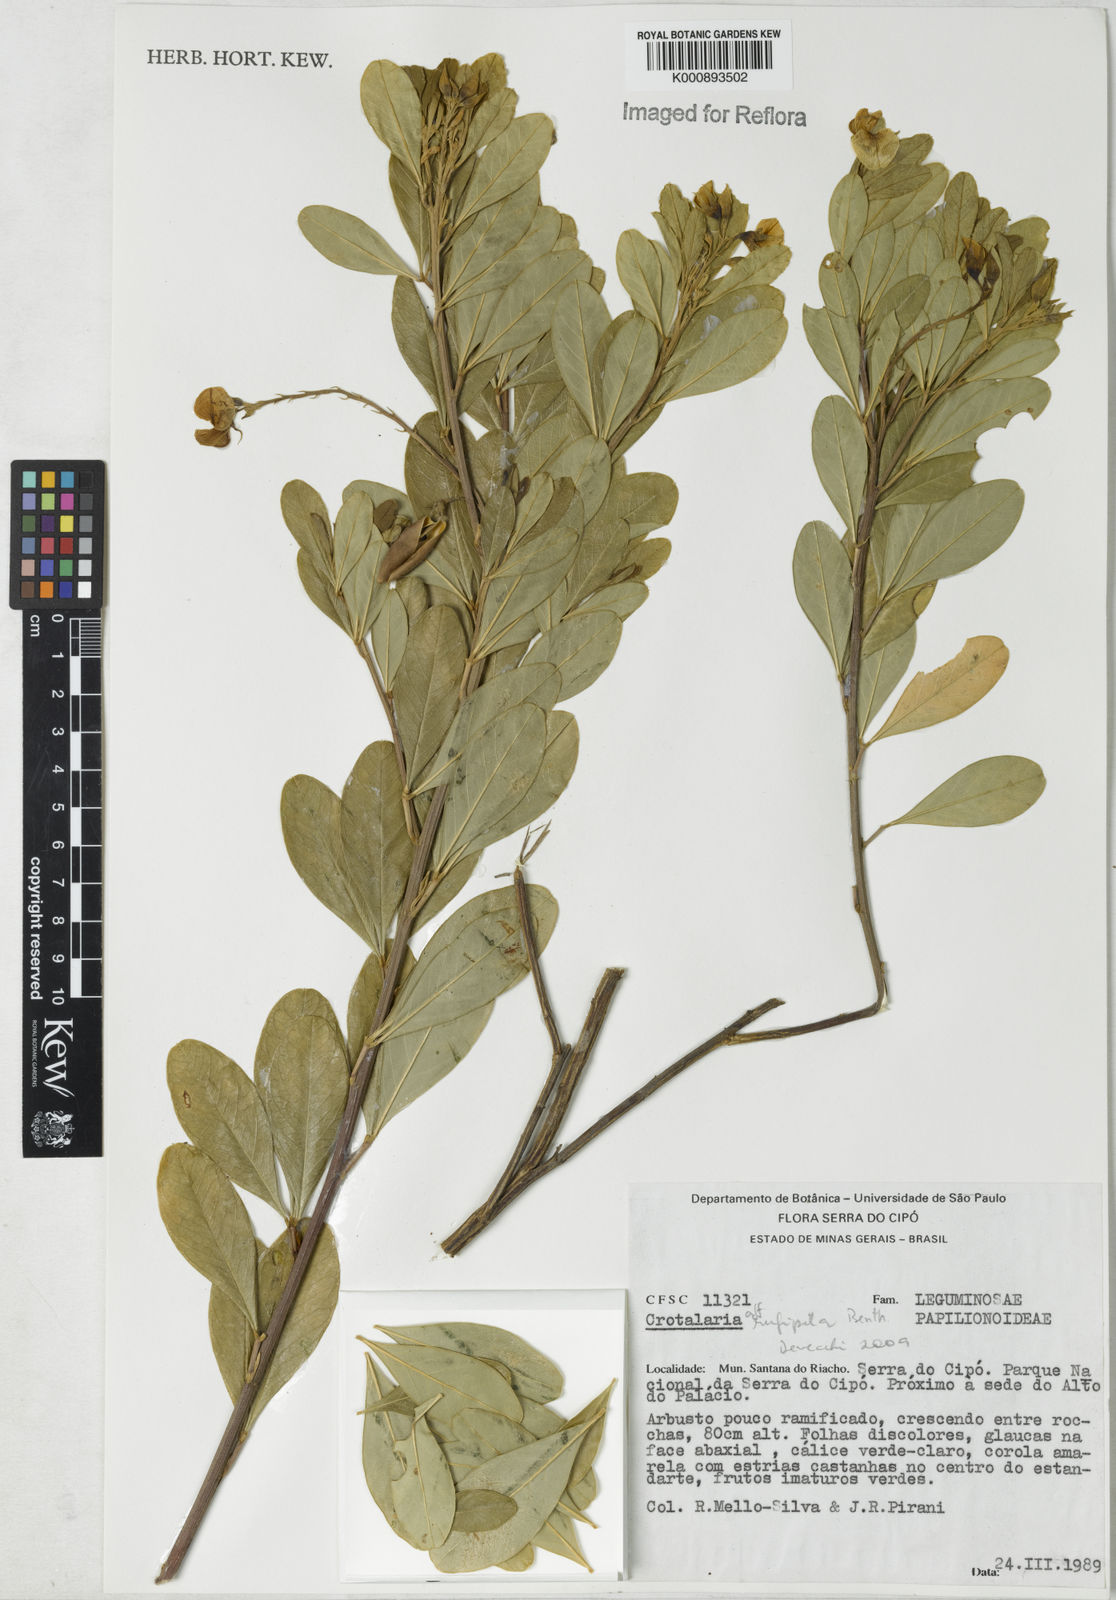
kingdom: Plantae
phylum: Tracheophyta
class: Magnoliopsida
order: Fabales
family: Fabaceae
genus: Crotalaria
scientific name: Crotalaria rufipila
